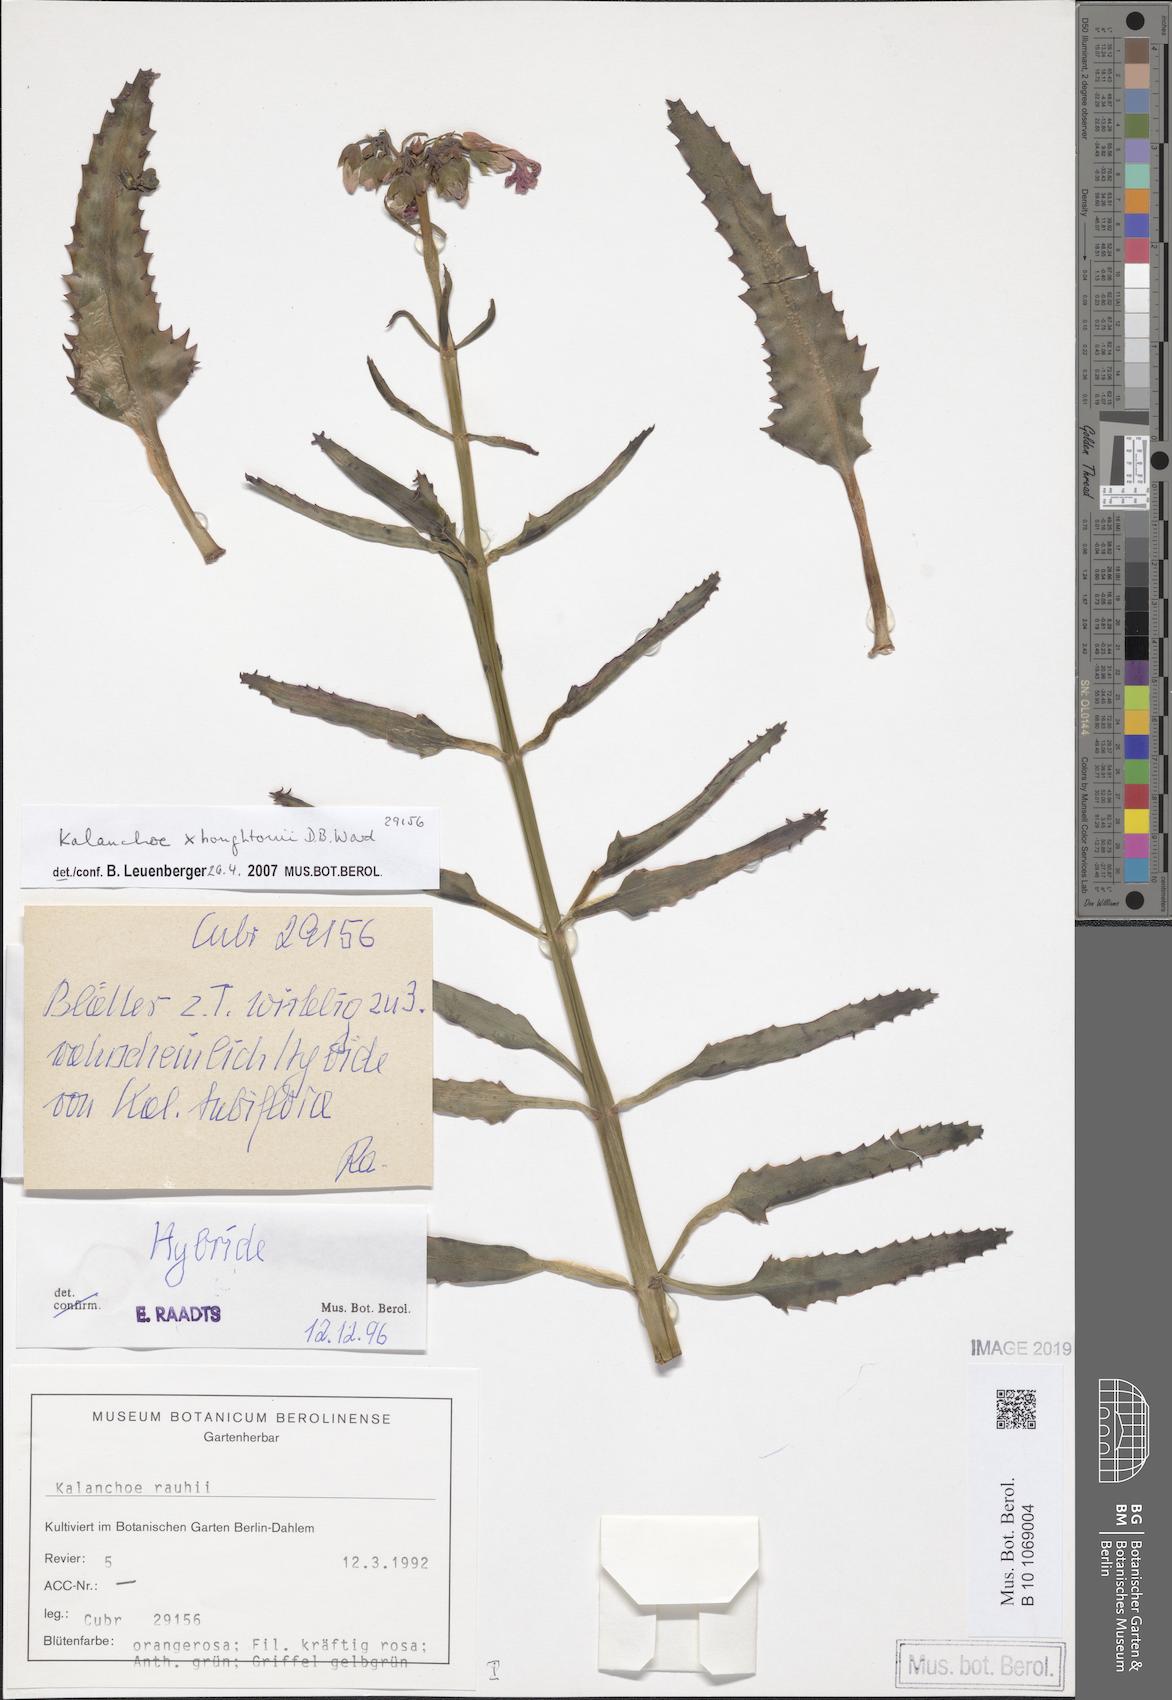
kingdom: Plantae
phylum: Tracheophyta
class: Magnoliopsida
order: Saxifragales
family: Crassulaceae
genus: Kalanchoe
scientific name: Kalanchoe houghtonii
